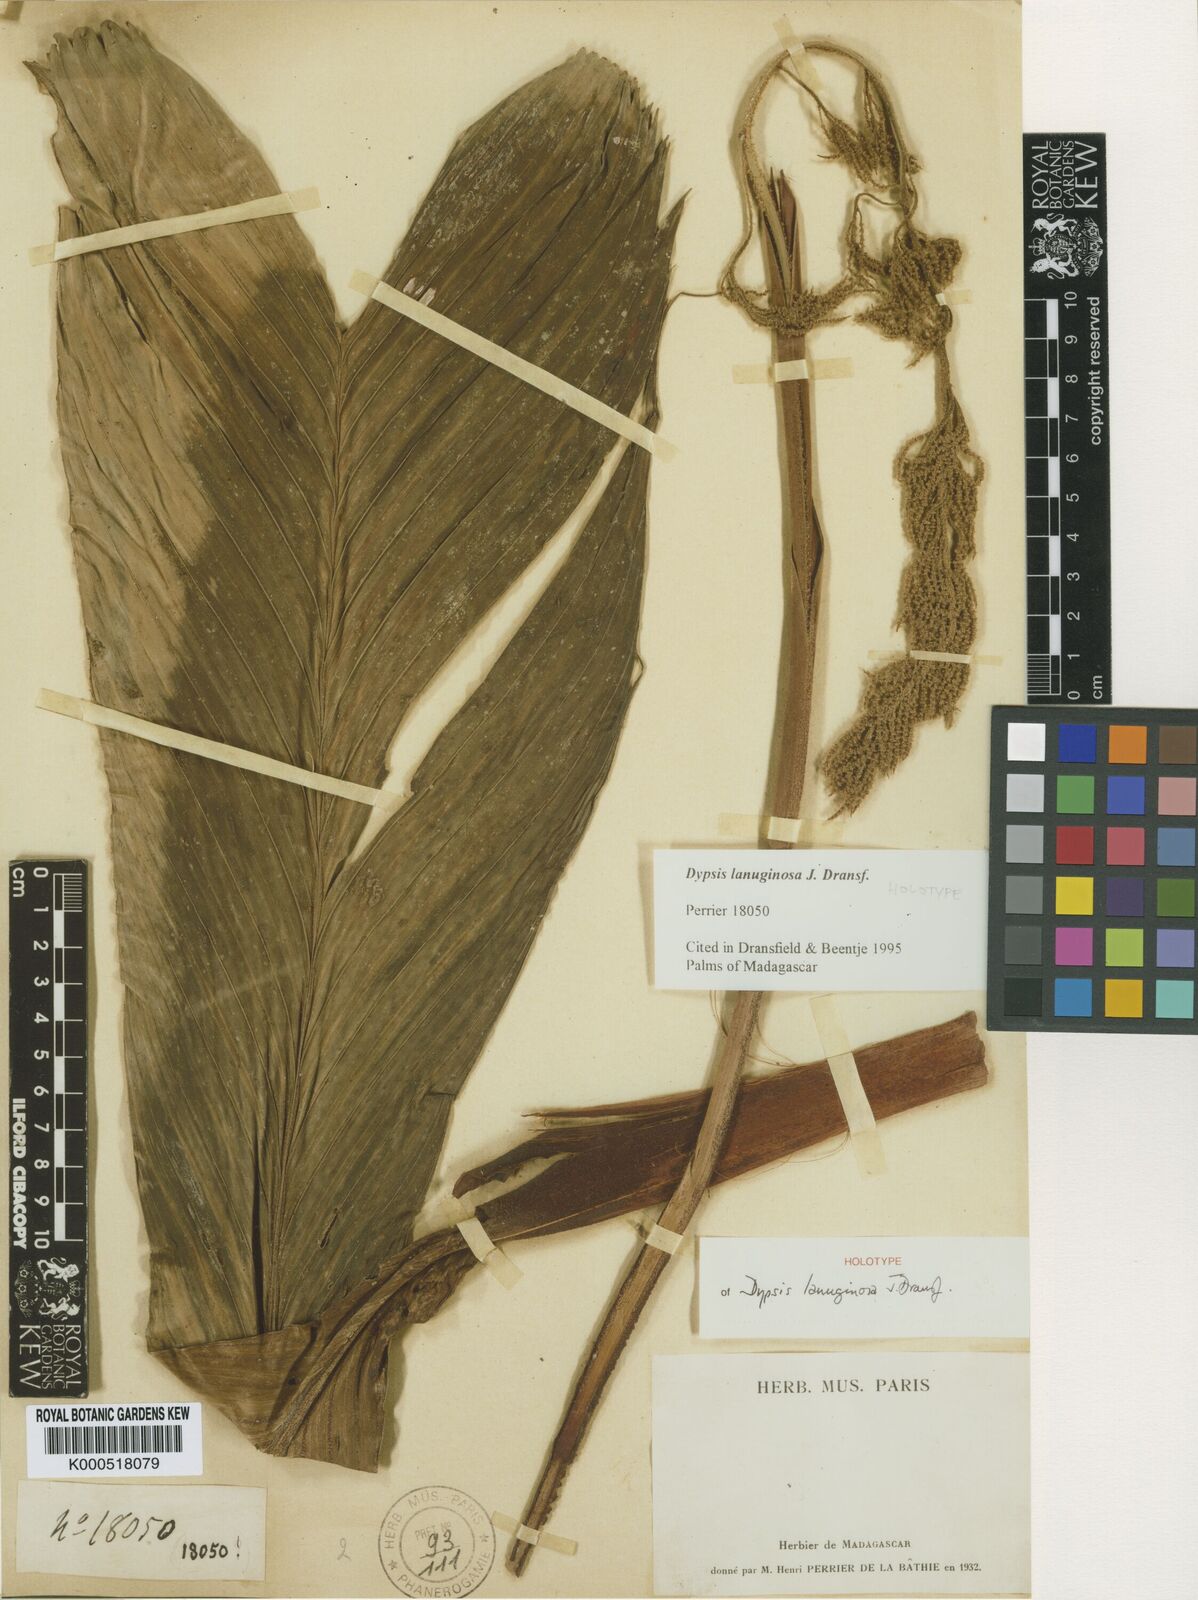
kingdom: Plantae
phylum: Tracheophyta
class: Liliopsida
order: Arecales
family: Arecaceae
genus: Dypsis
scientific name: Dypsis lanuginosa
